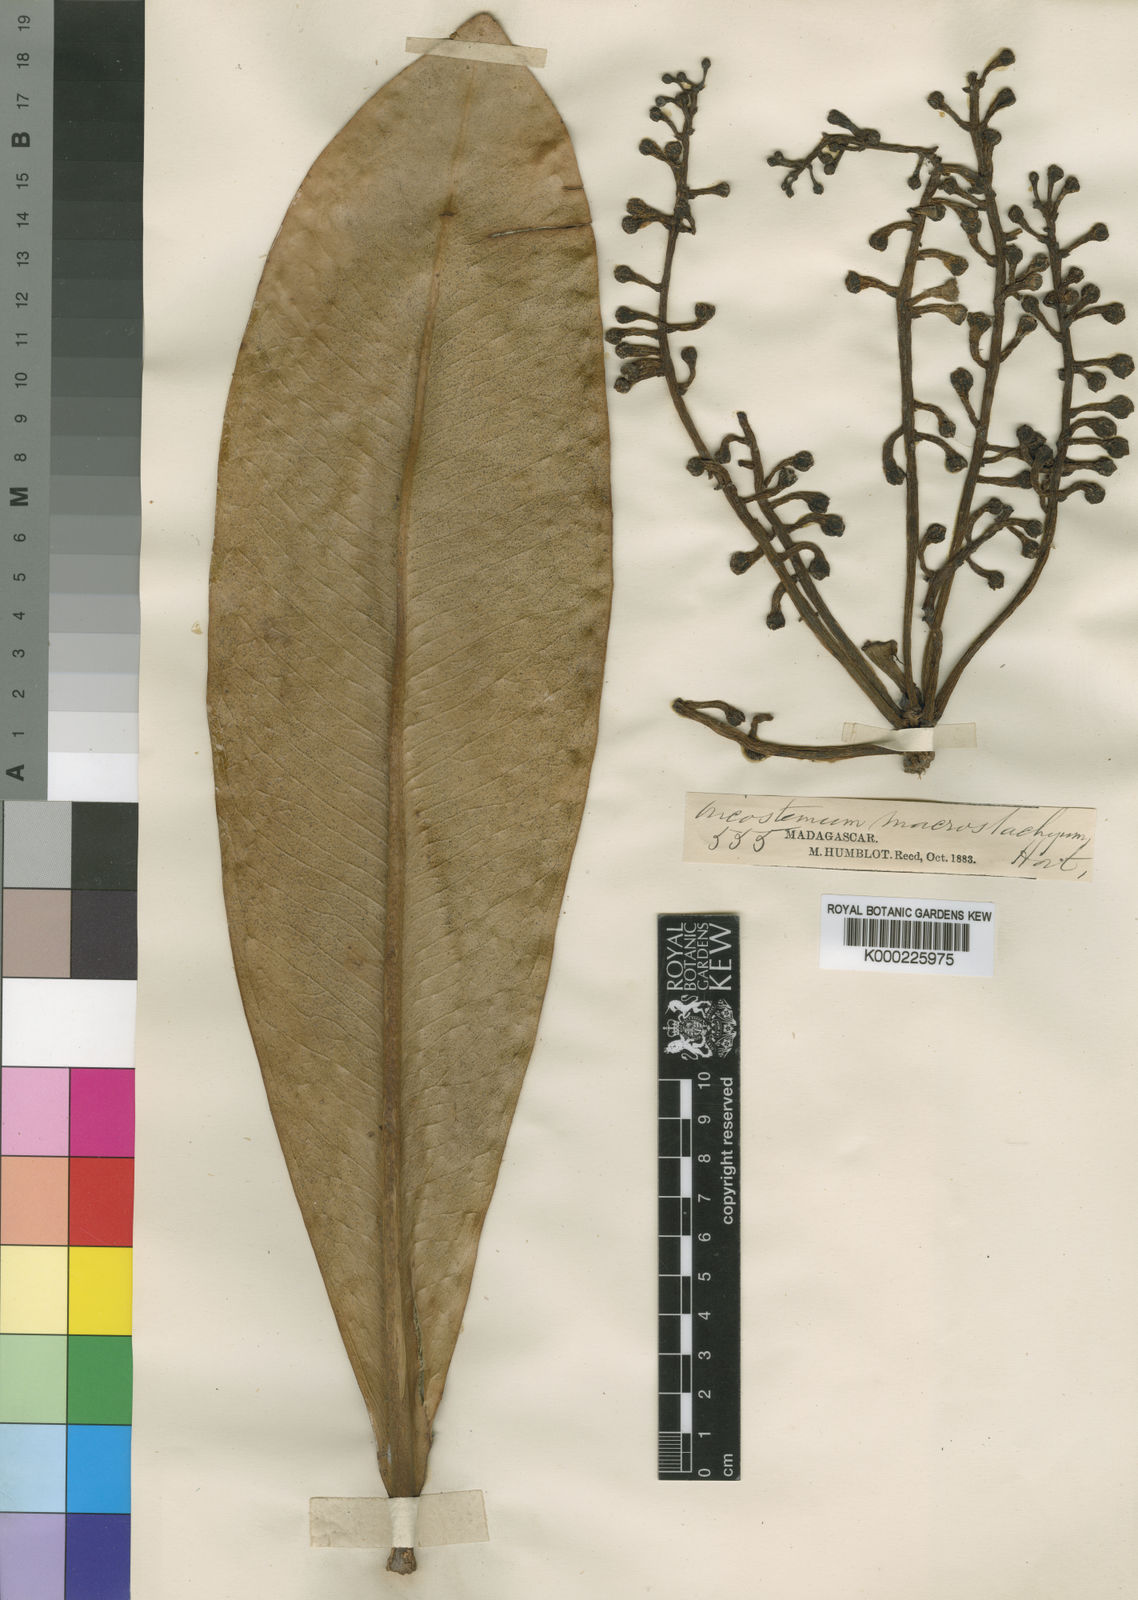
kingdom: Plantae
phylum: Tracheophyta
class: Magnoliopsida
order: Ericales
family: Primulaceae
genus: Oncostemum
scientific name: Oncostemum macrostachyum
